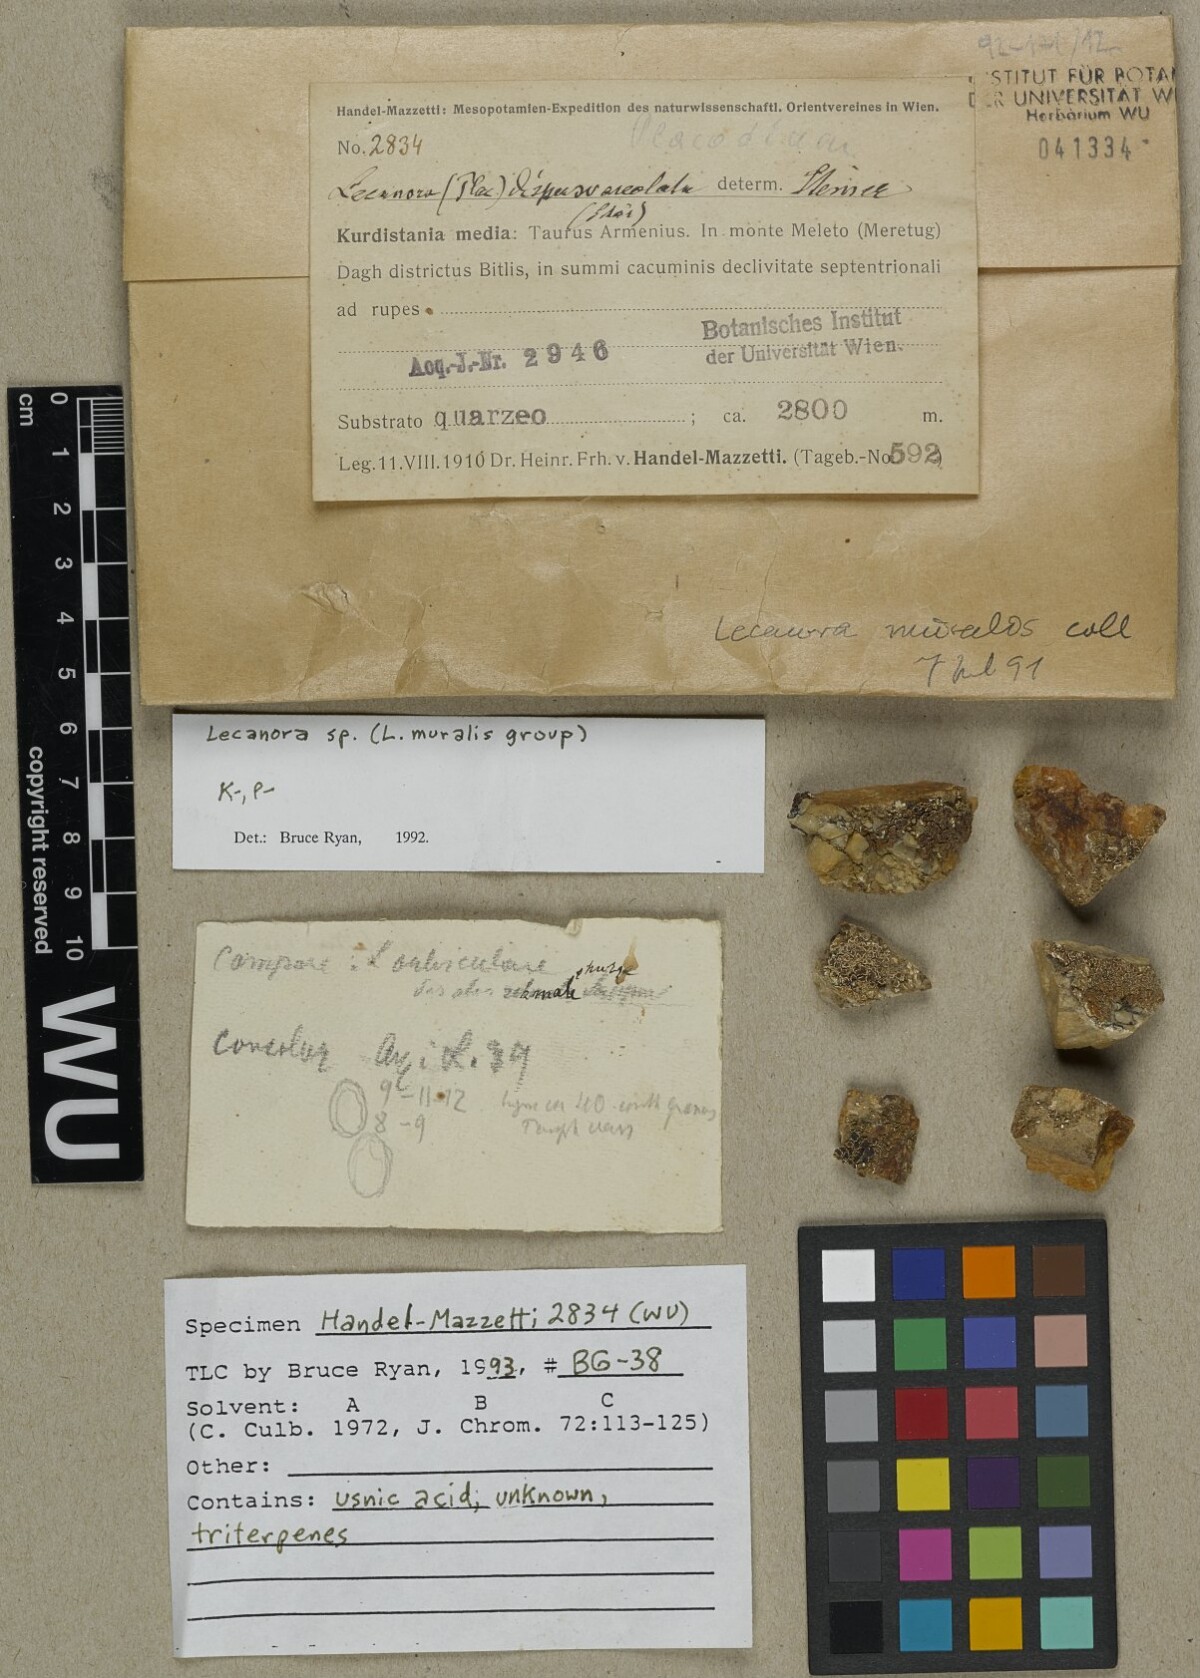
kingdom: Fungi
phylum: Ascomycota
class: Lecanoromycetes
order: Lecanorales
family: Lecanoraceae
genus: Lecanora
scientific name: Lecanora
